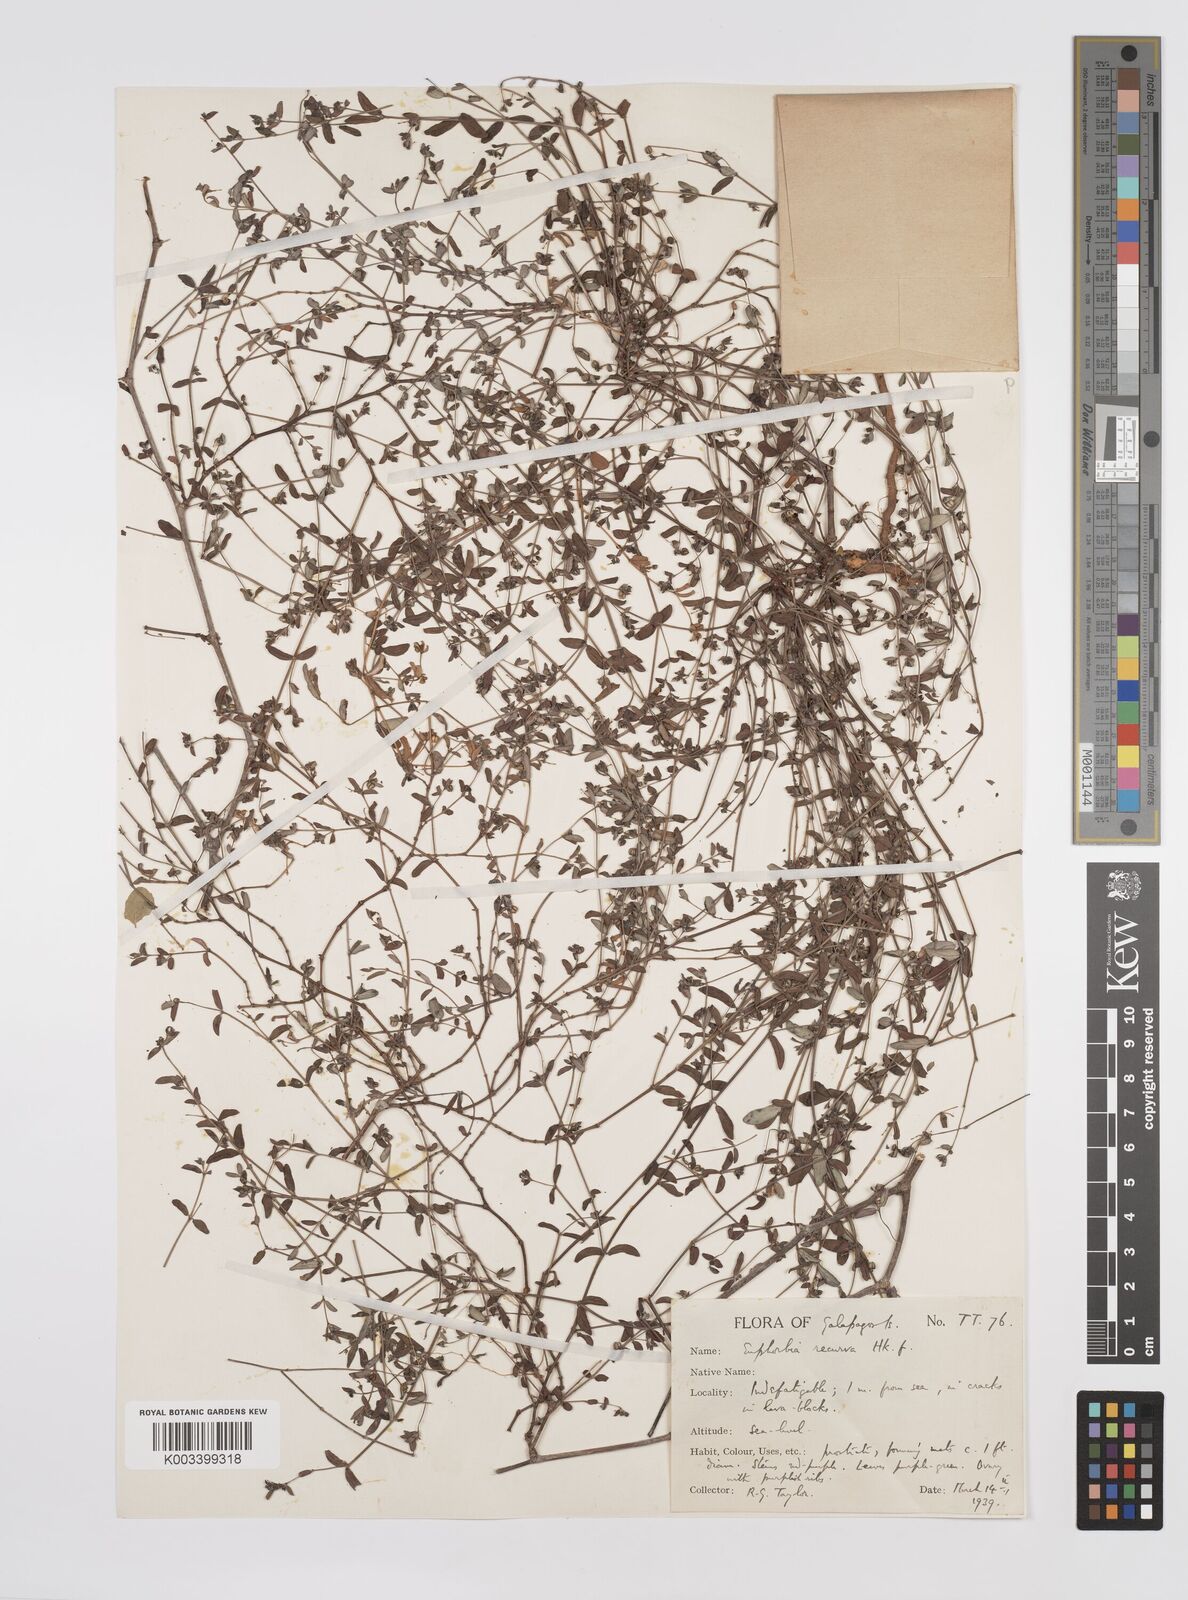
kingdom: Plantae
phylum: Tracheophyta
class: Magnoliopsida
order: Malpighiales
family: Euphorbiaceae
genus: Euphorbia
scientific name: Euphorbia recurva
